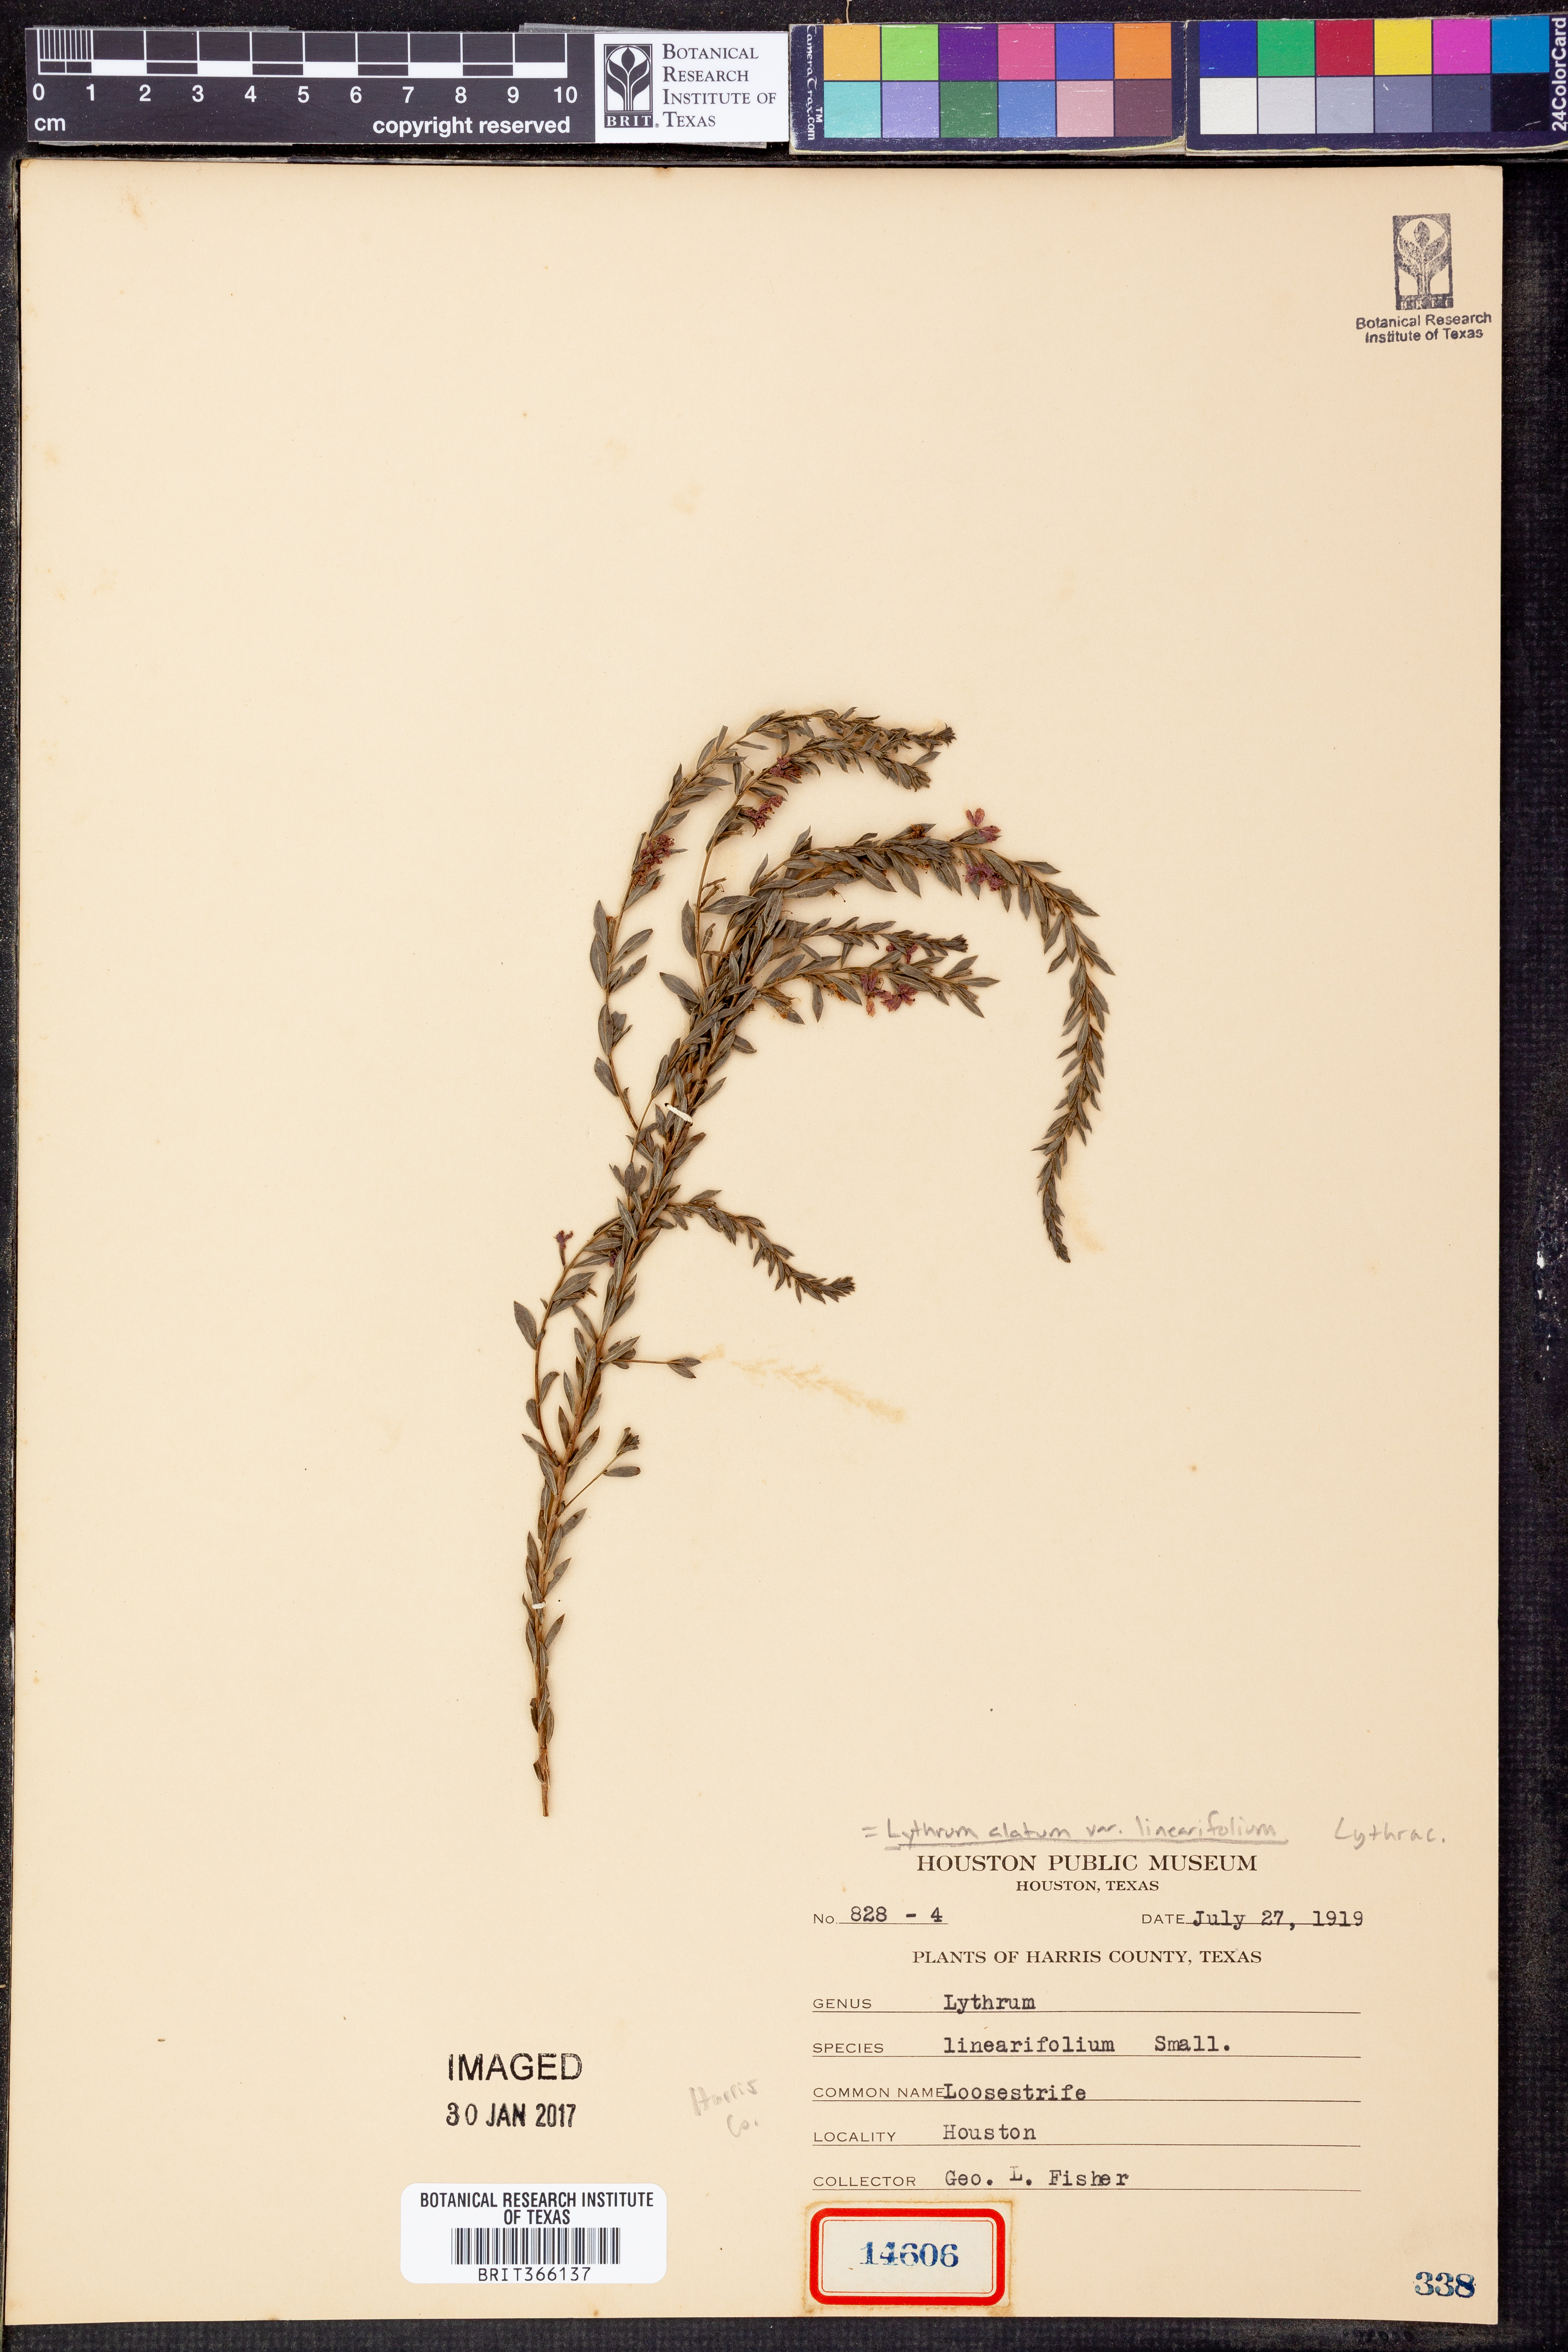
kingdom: Plantae
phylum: Tracheophyta
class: Magnoliopsida
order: Myrtales
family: Lythraceae
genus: Lythrum
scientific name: Lythrum californicum
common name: California loosestrife
